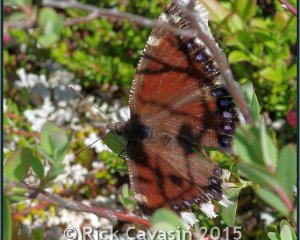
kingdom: Animalia
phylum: Arthropoda
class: Insecta
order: Lepidoptera
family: Nymphalidae
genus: Nymphalis
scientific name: Nymphalis antiopa
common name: Mourning Cloak
